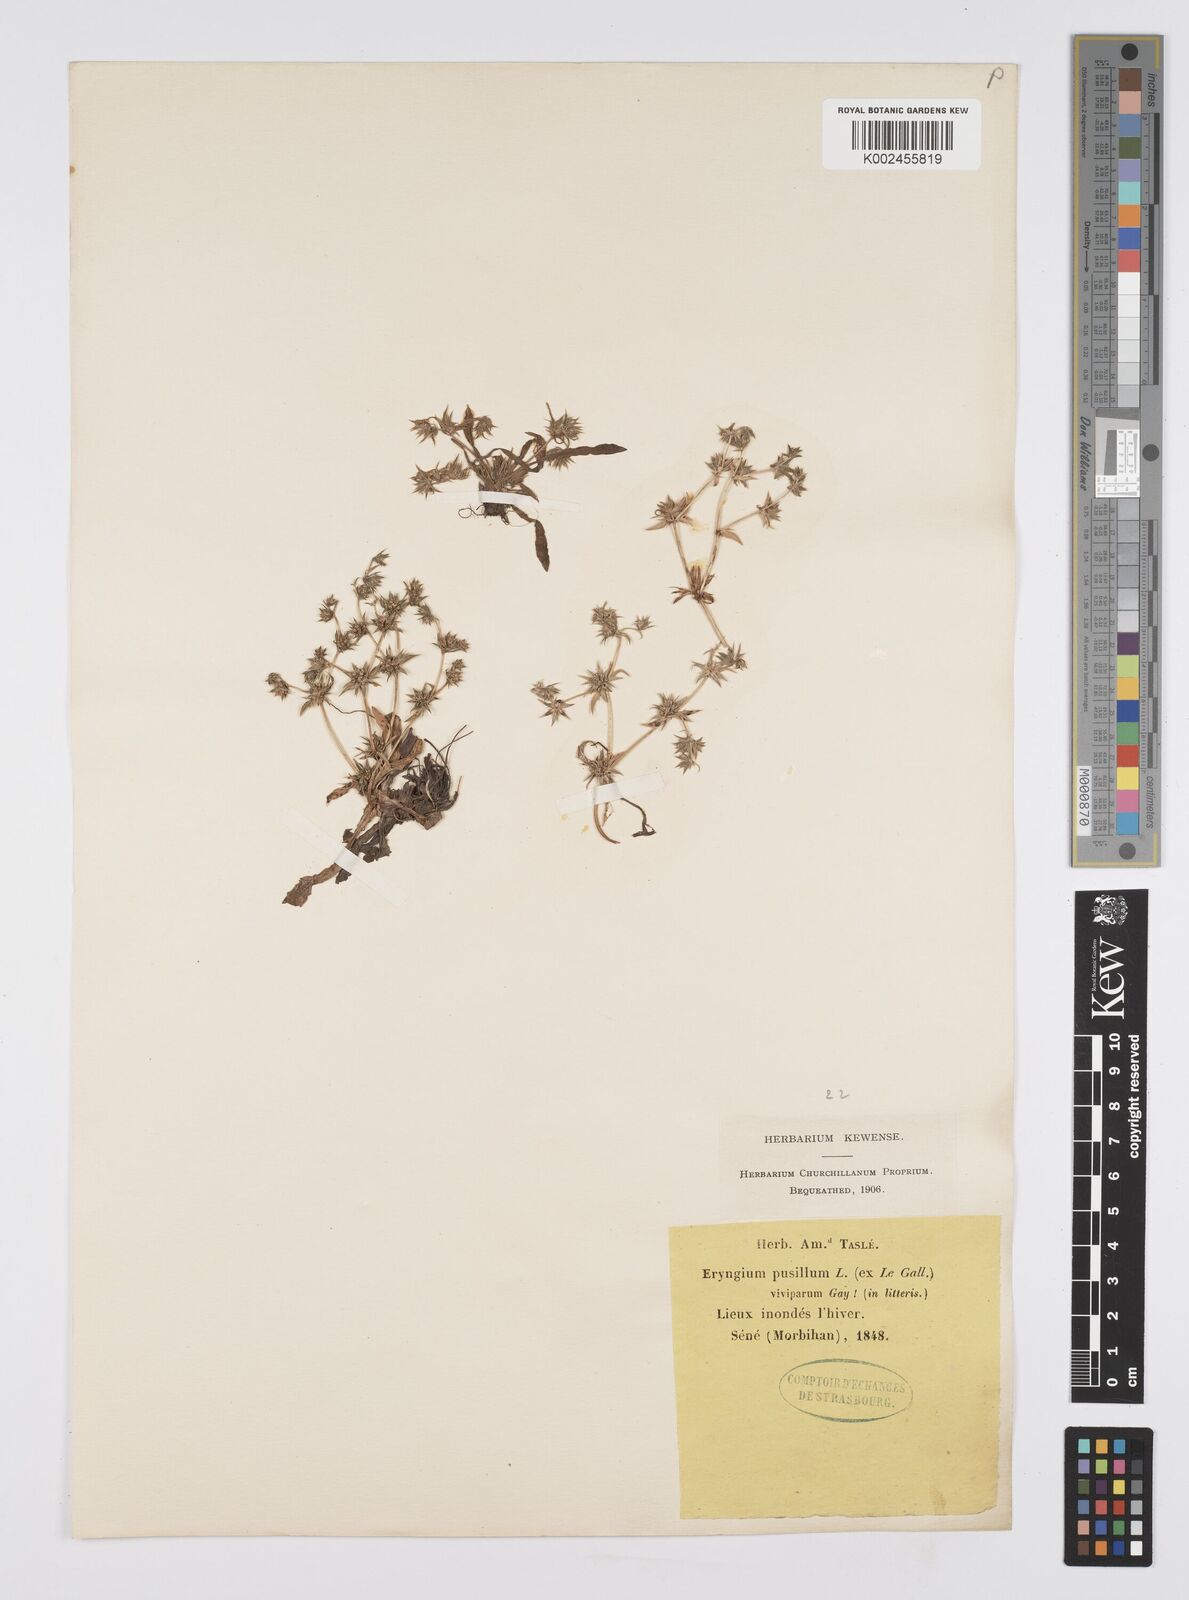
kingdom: Plantae
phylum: Tracheophyta
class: Magnoliopsida
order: Apiales
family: Apiaceae
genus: Eryngium
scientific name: Eryngium viviparum
